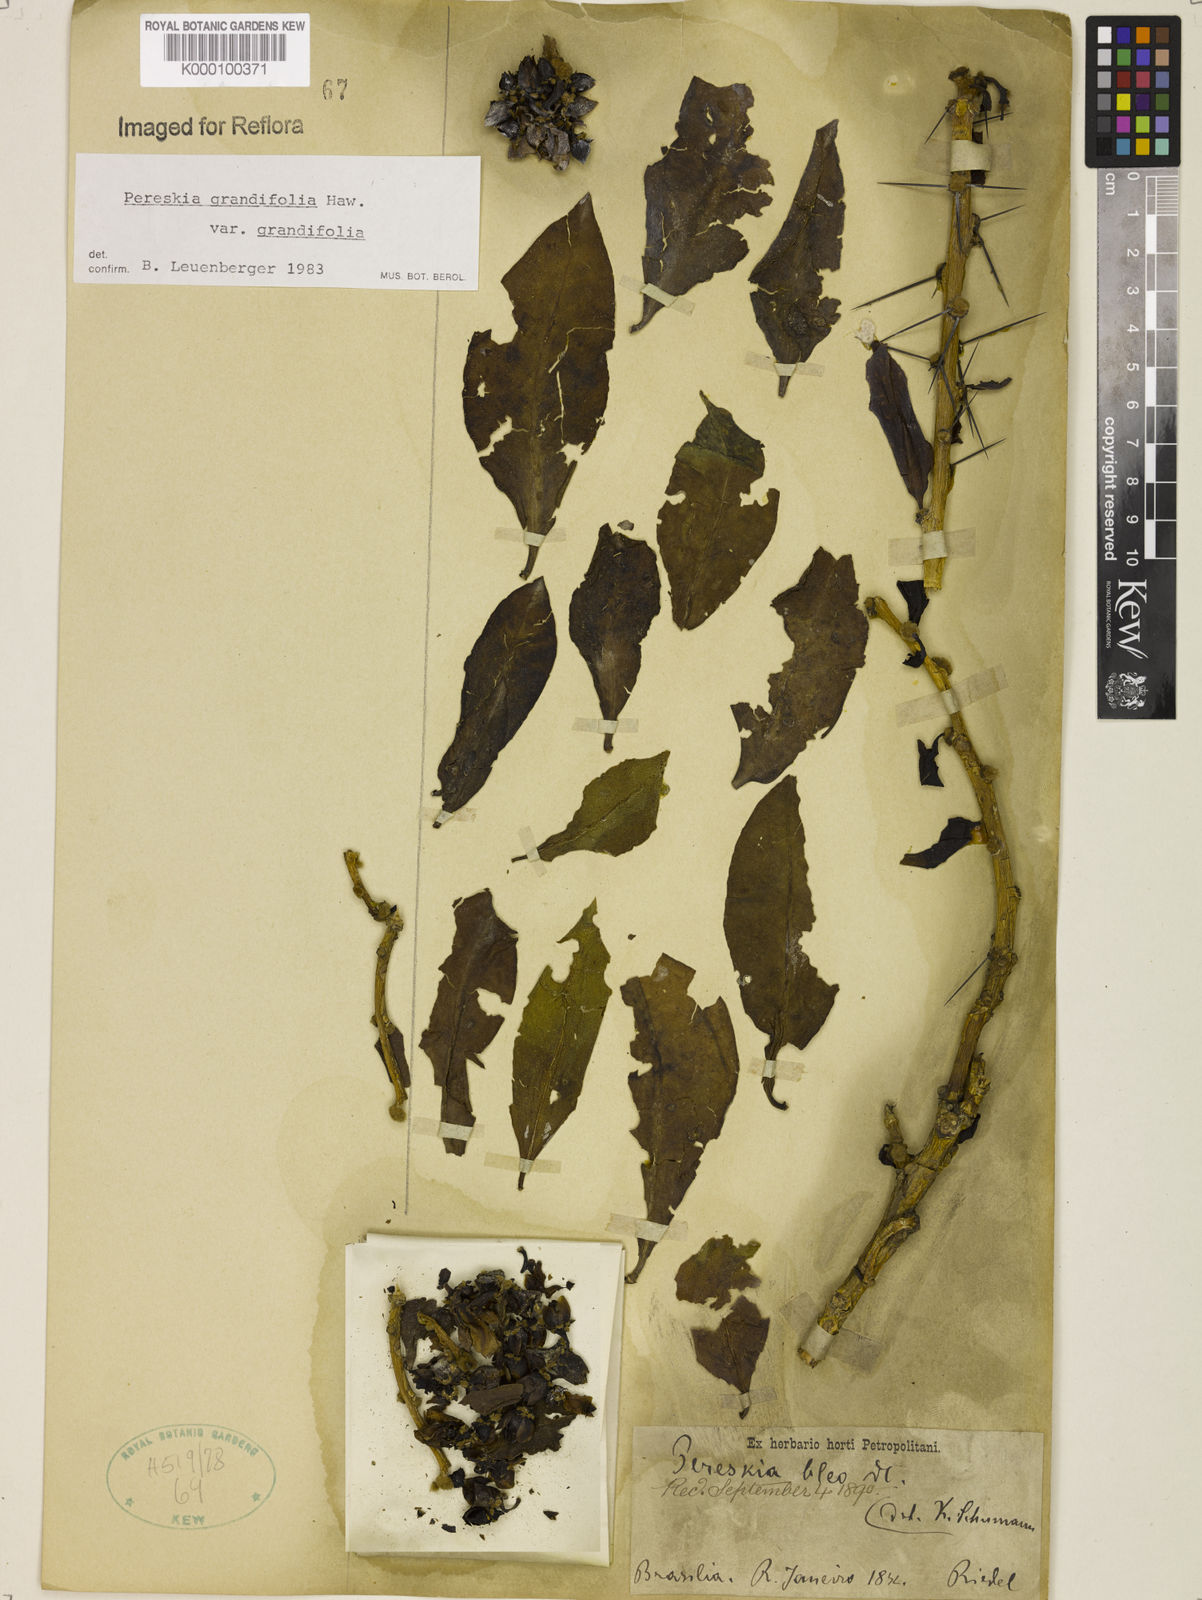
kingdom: Plantae
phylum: Tracheophyta
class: Magnoliopsida
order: Caryophyllales
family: Cactaceae
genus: Pereskia
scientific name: Pereskia grandifolia
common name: Rose cactus
